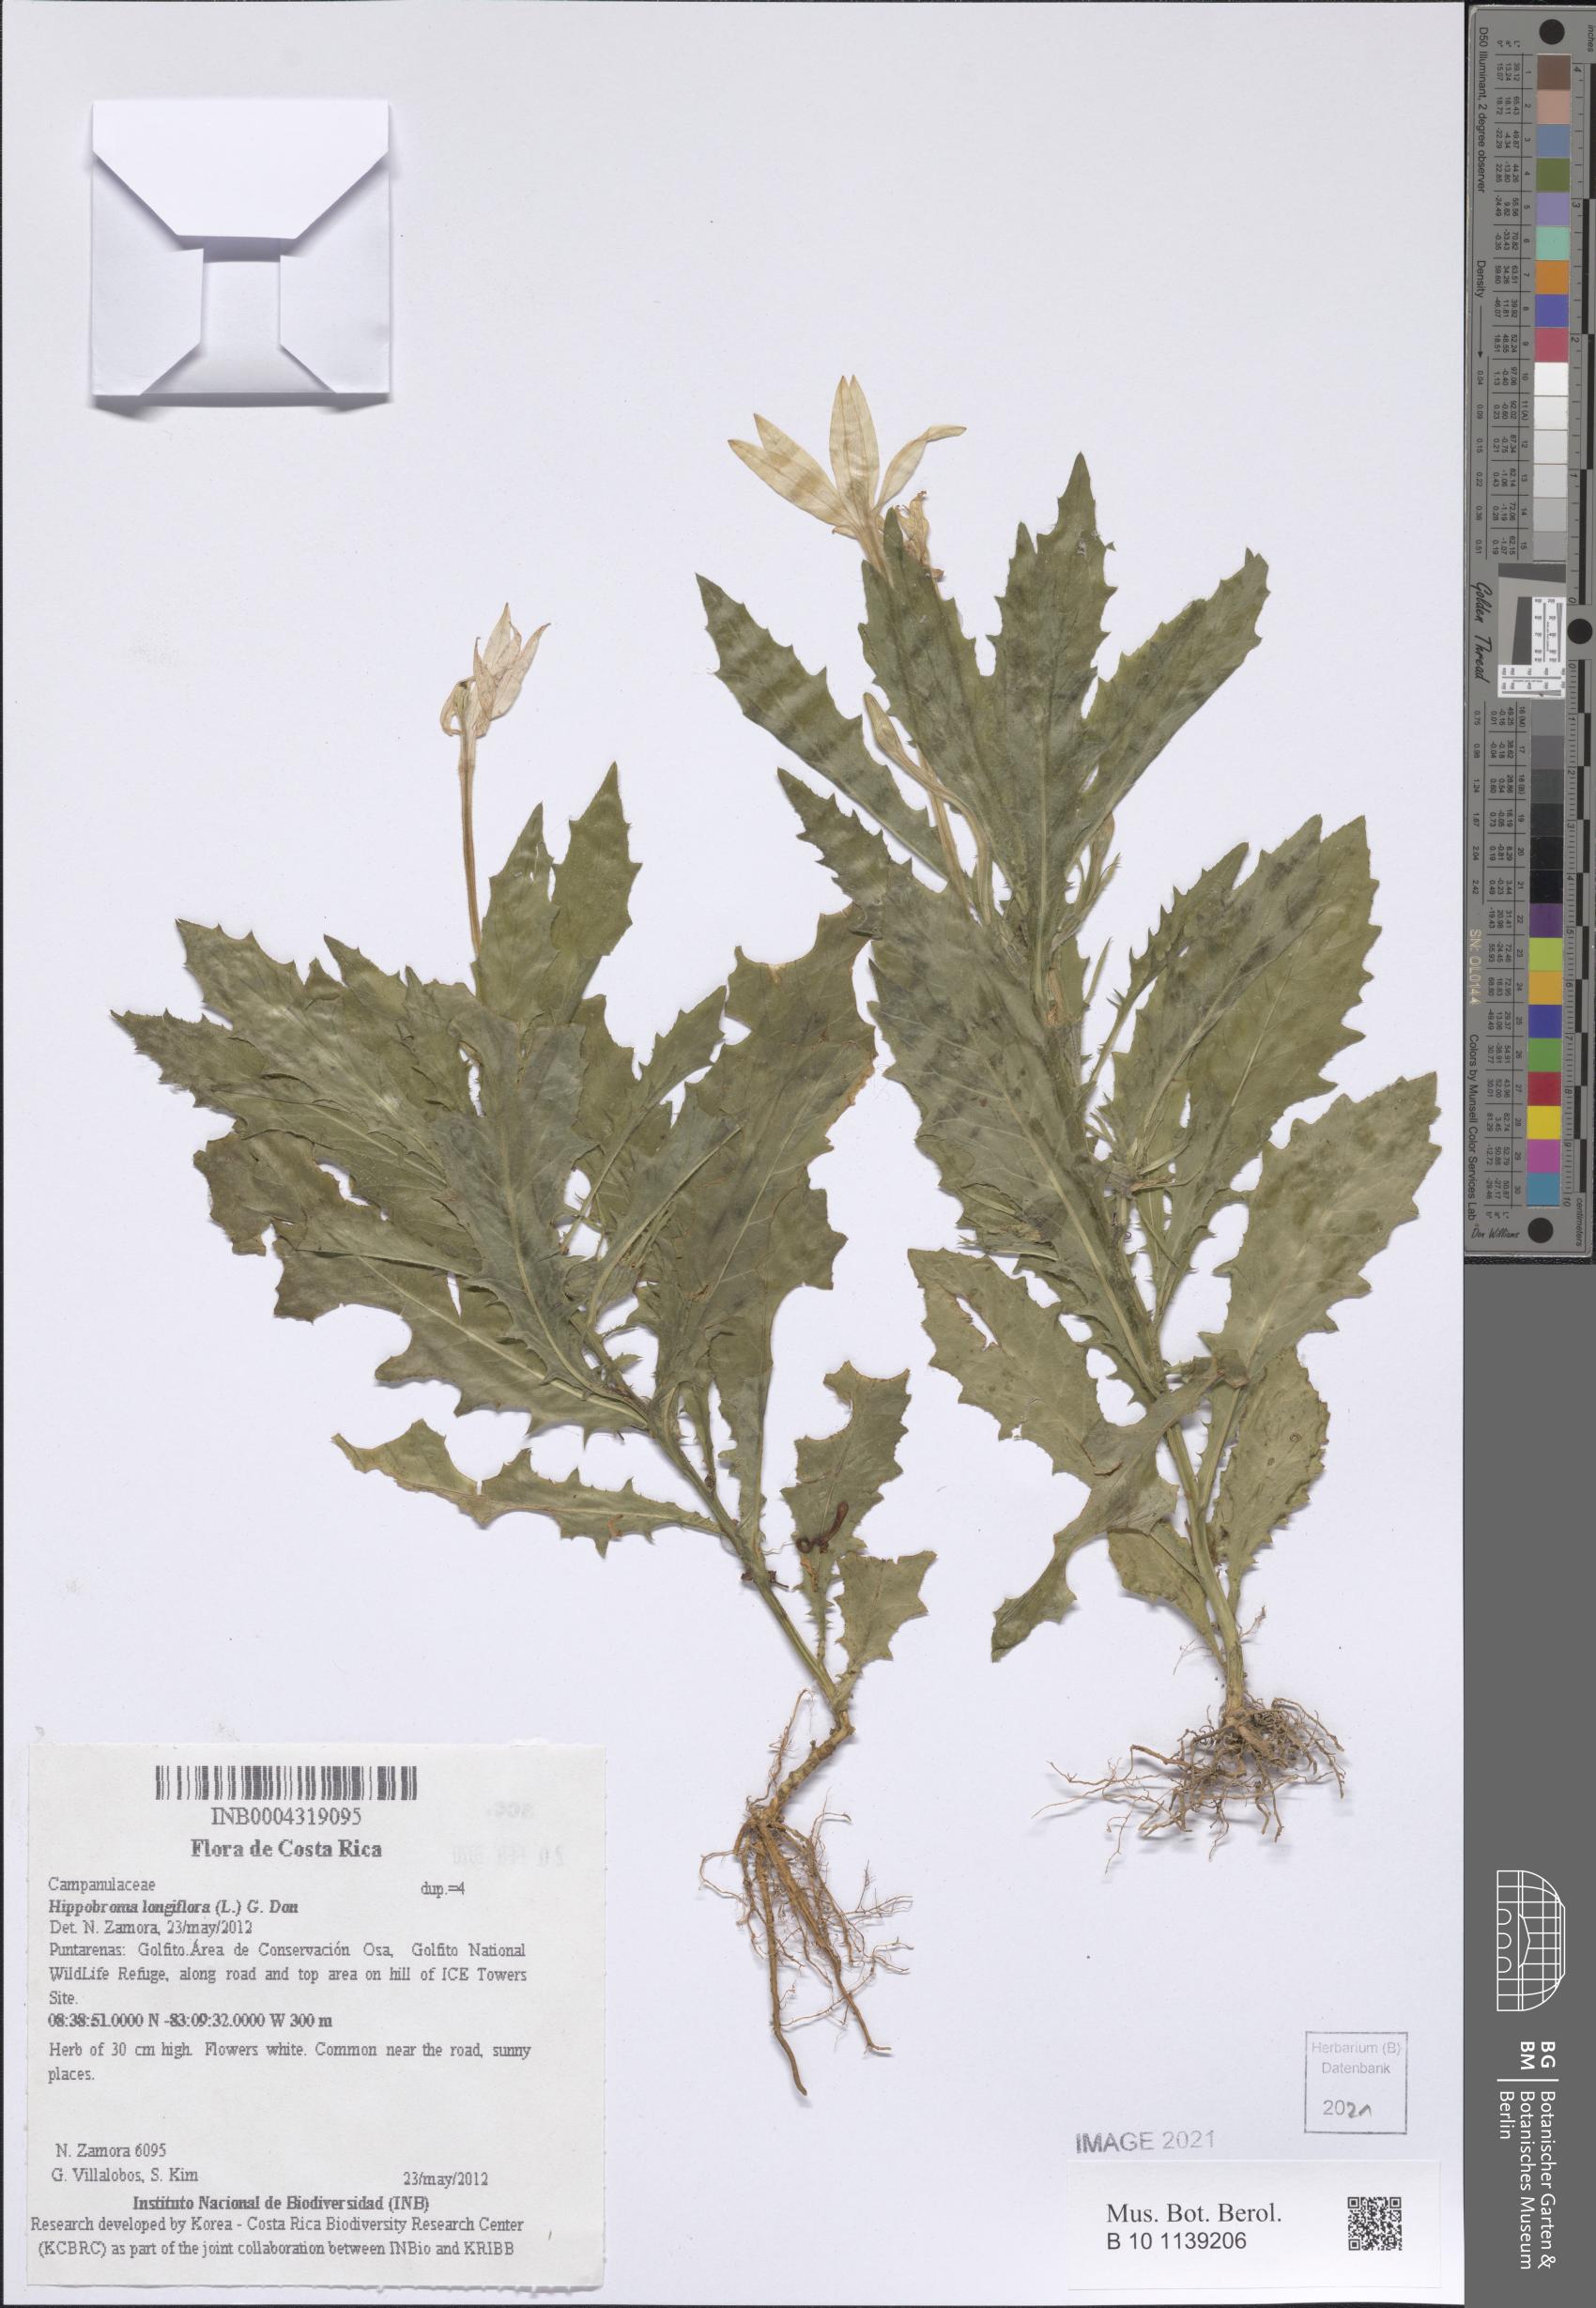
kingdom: Plantae
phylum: Tracheophyta
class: Magnoliopsida
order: Asterales
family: Campanulaceae
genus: Hippobroma
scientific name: Hippobroma longiflora
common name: Madamfate
